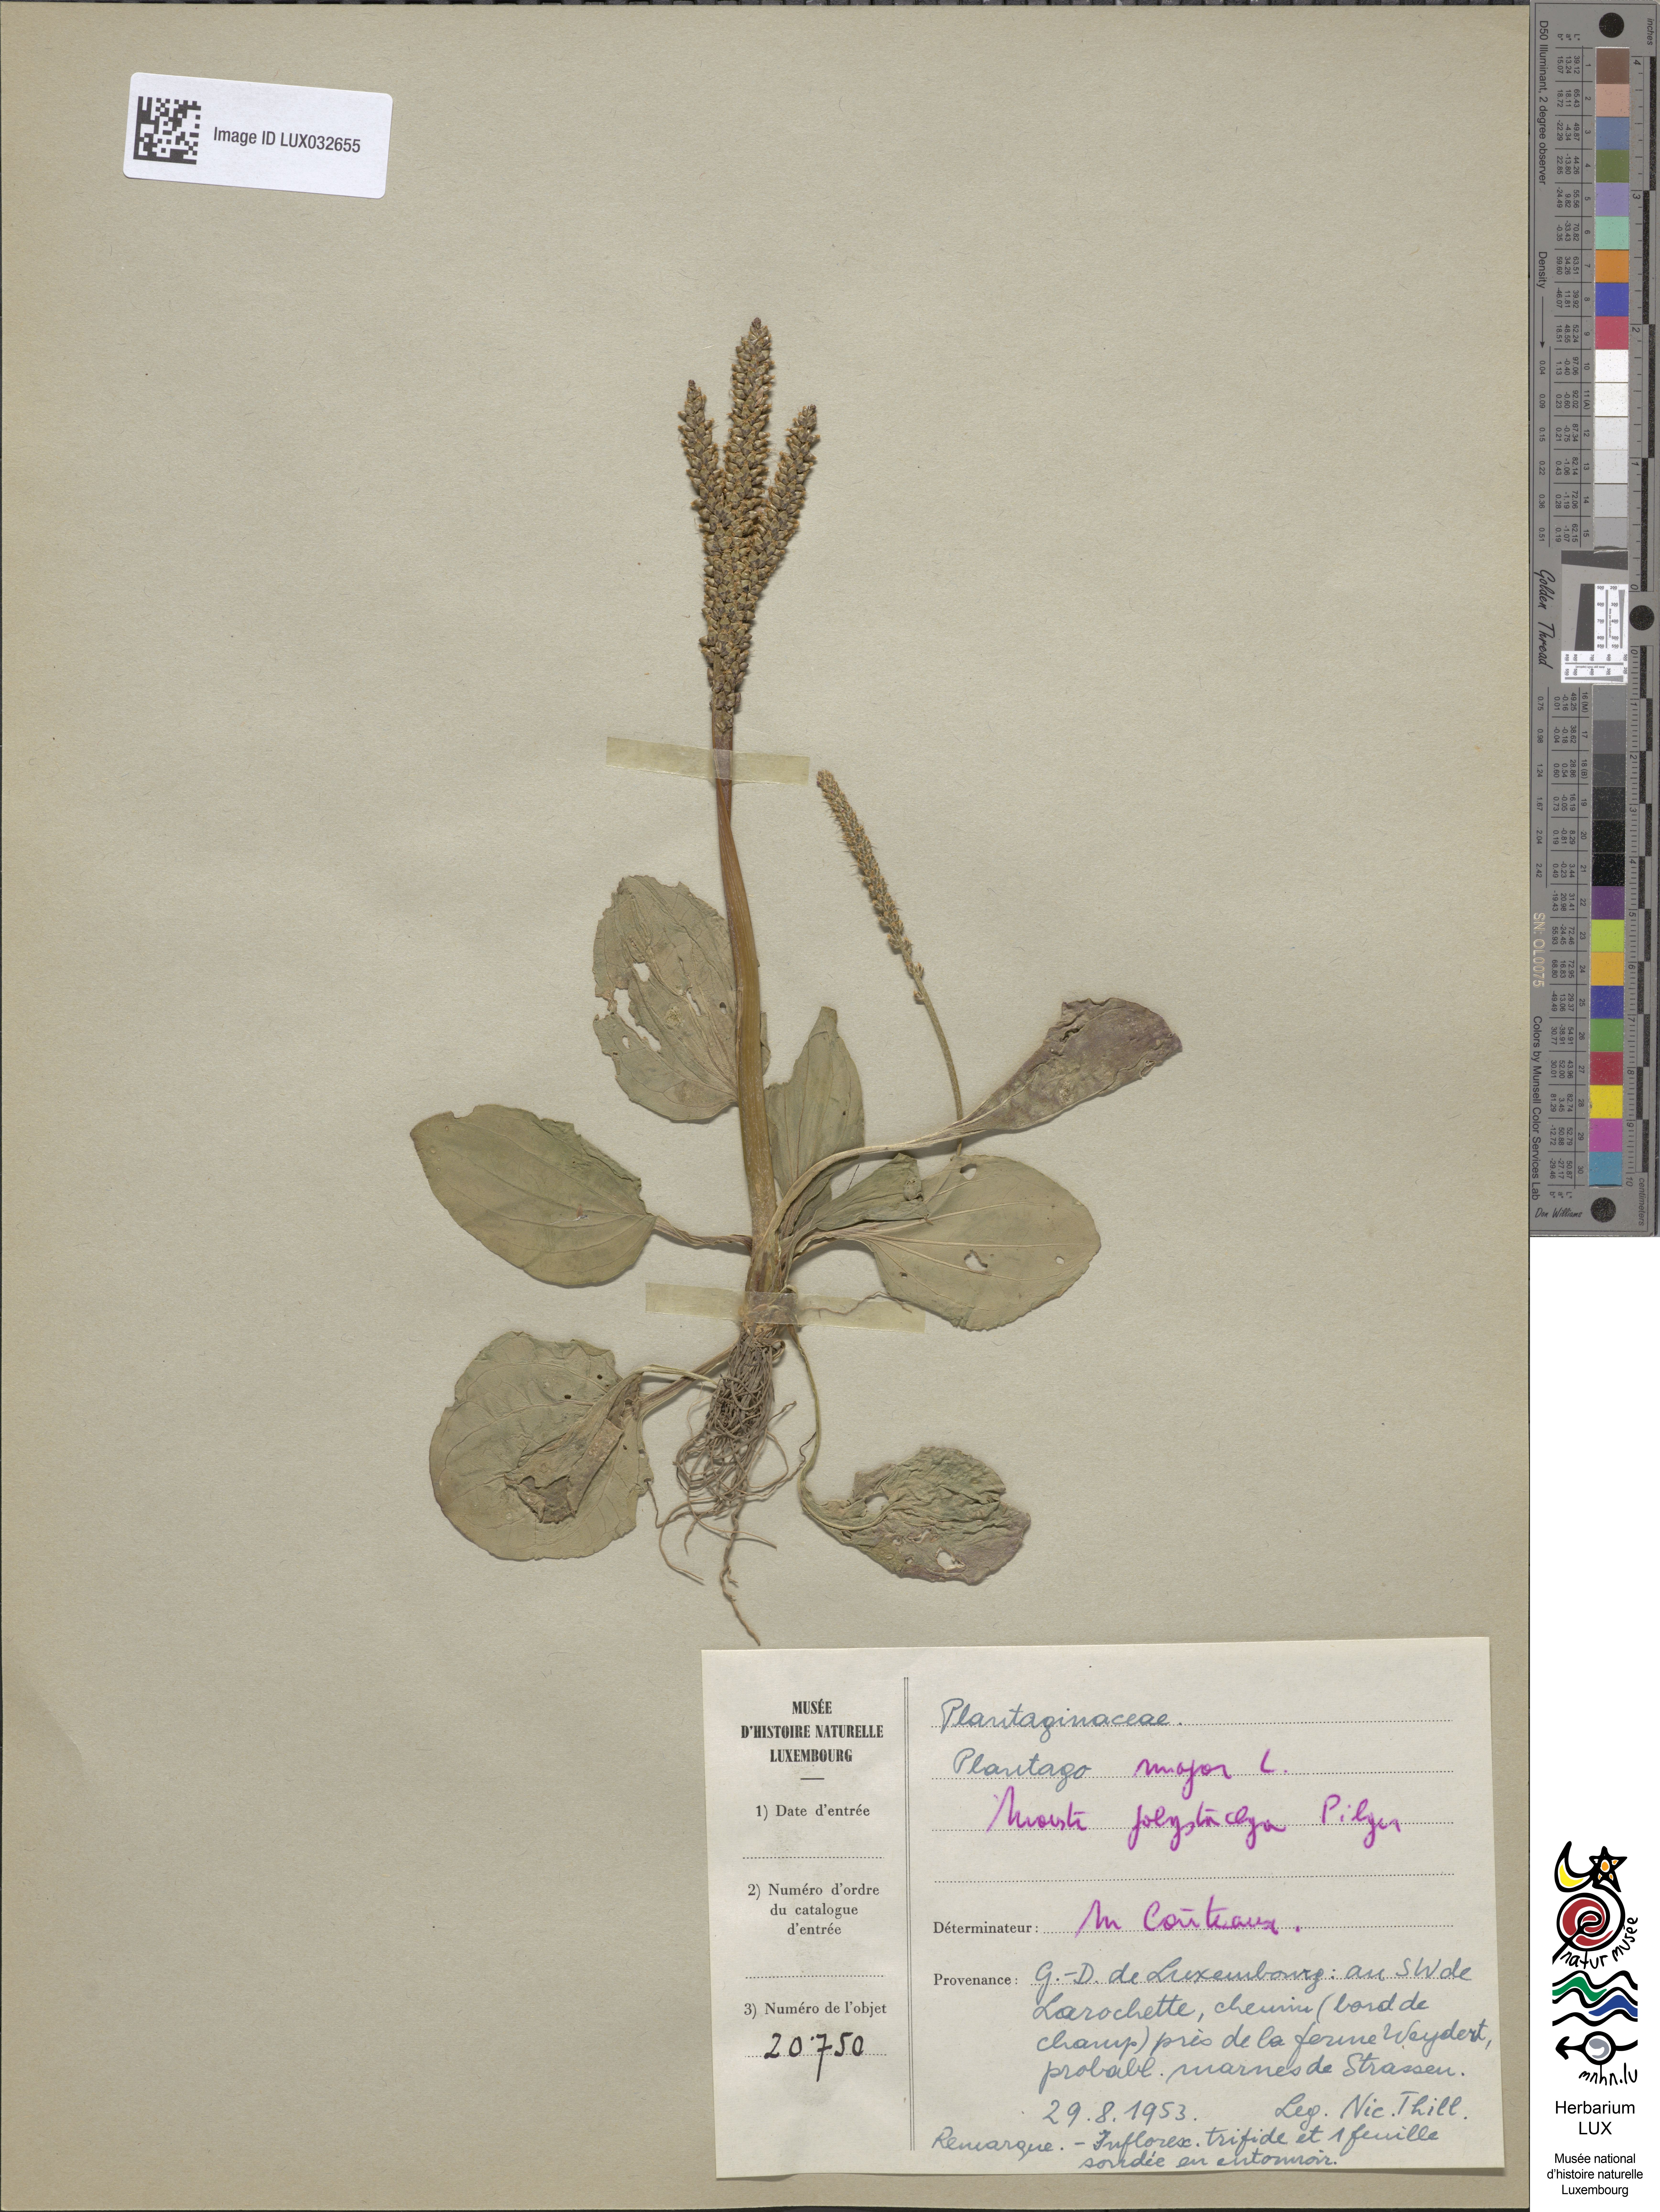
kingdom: Plantae
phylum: Tracheophyta
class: Magnoliopsida
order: Lamiales
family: Plantaginaceae
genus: Plantago
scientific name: Plantago major
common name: Common plantain
